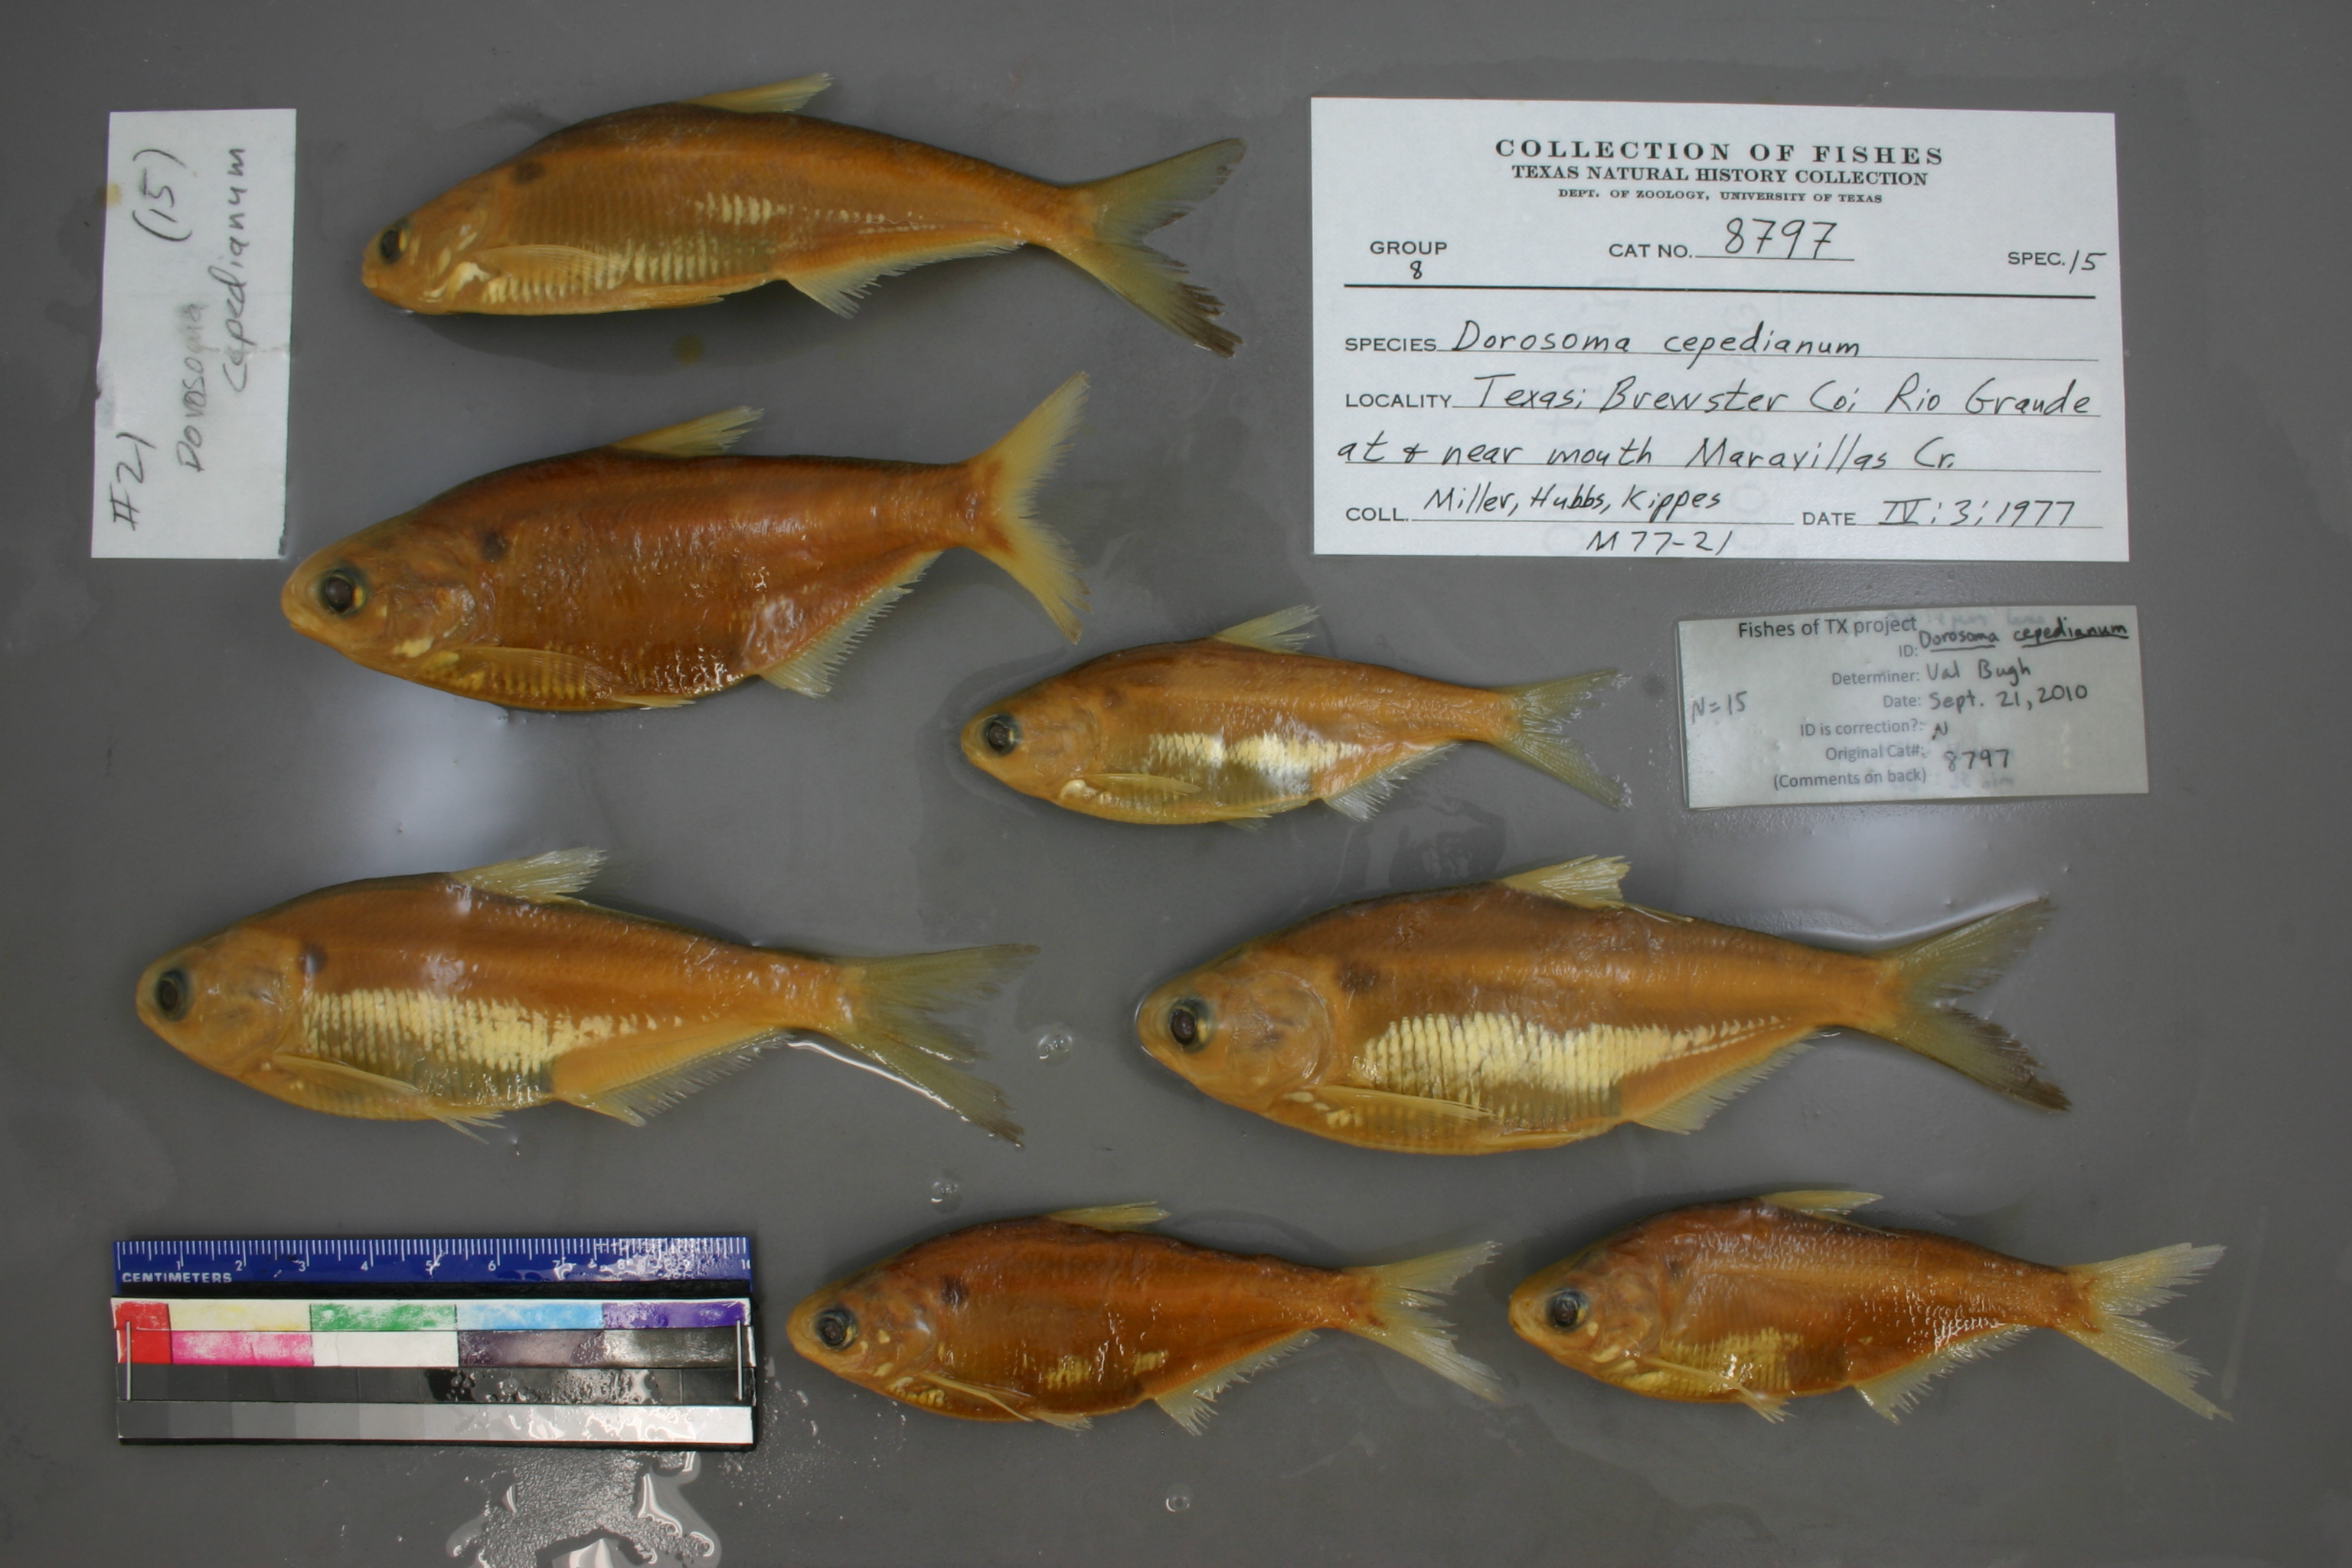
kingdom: Animalia
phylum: Chordata
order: Clupeiformes
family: Clupeidae
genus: Dorosoma
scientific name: Dorosoma cepedianum
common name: Gizzard shad
